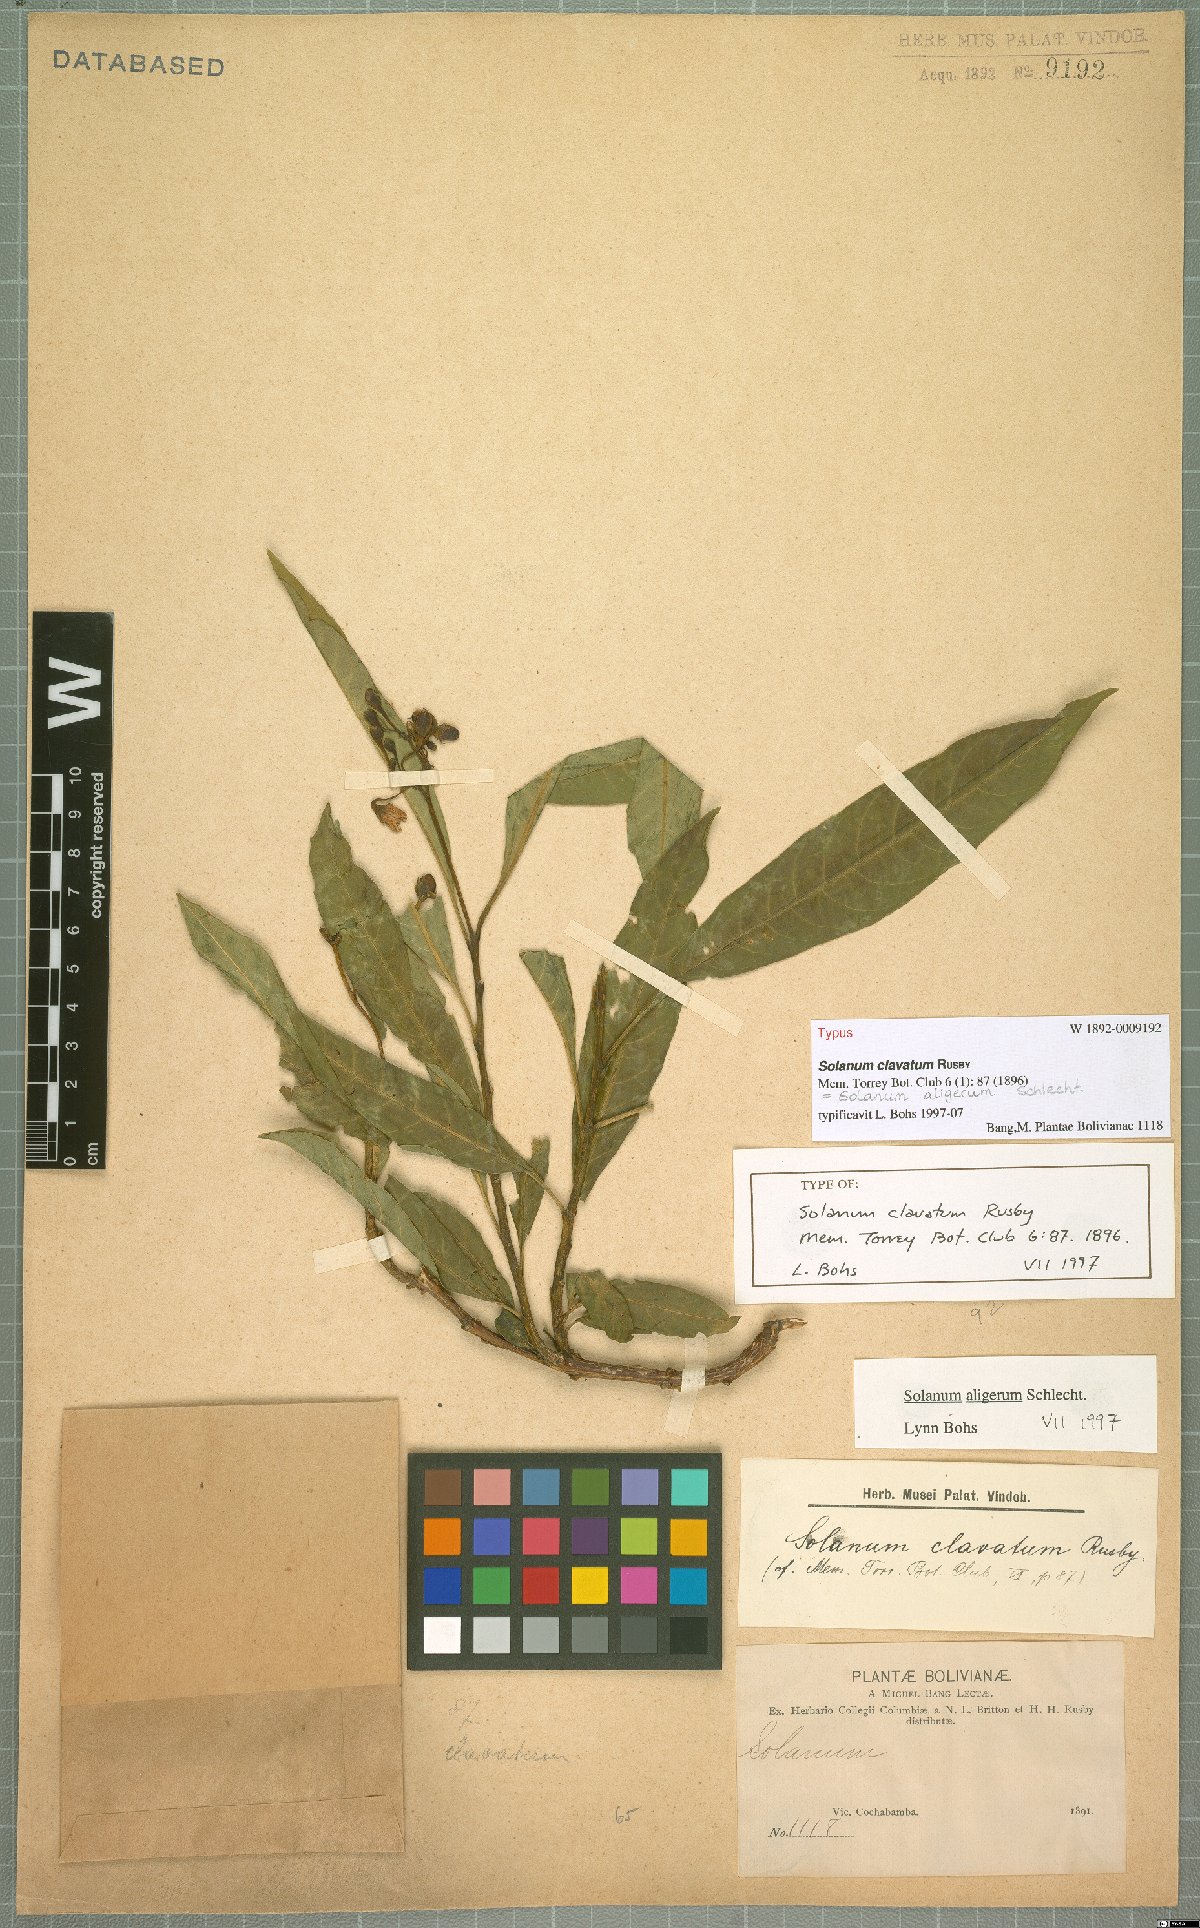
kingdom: Plantae
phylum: Tracheophyta
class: Magnoliopsida
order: Solanales
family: Solanaceae
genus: Solanum
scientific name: Solanum aligerum
